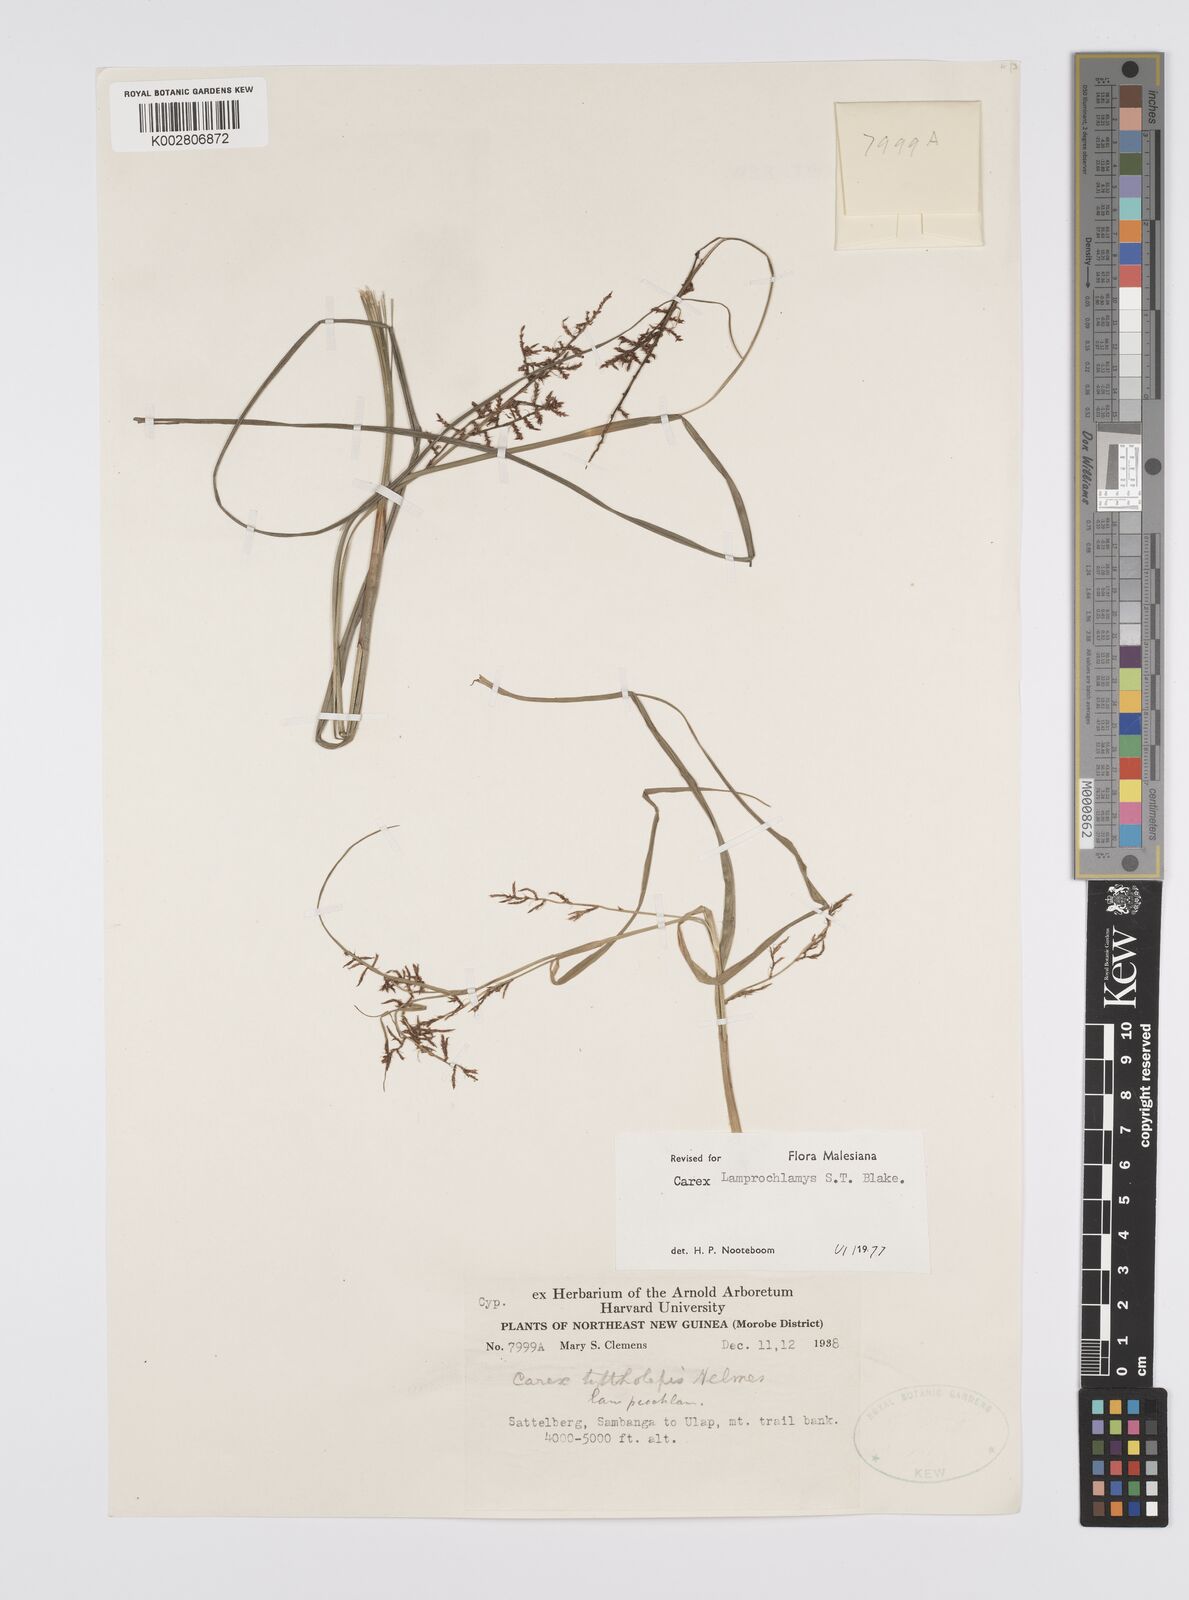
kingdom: Plantae
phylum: Tracheophyta
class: Liliopsida
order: Poales
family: Cyperaceae
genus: Carex
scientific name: Carex lamprochlamys
